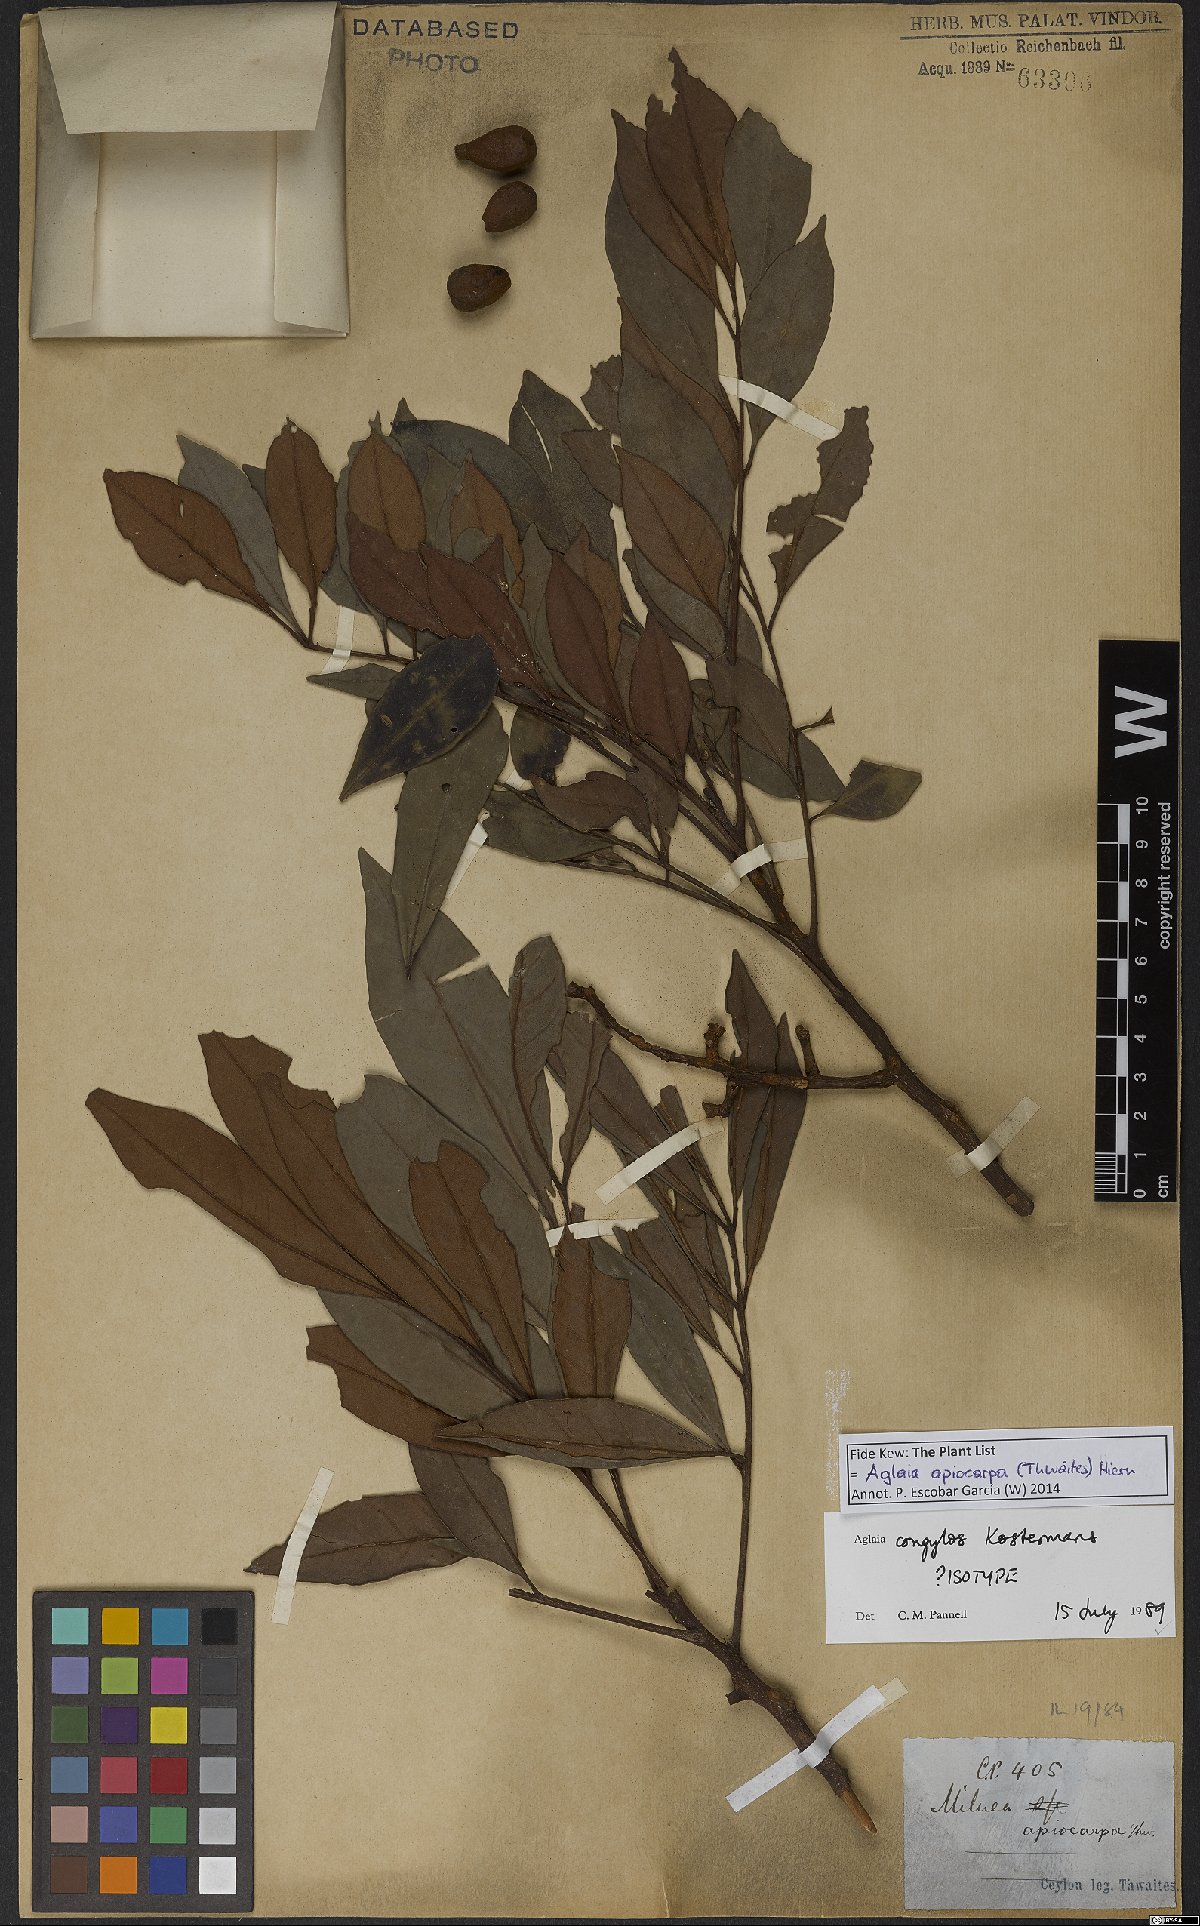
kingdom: Plantae
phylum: Tracheophyta
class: Magnoliopsida
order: Sapindales
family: Meliaceae
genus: Aglaia
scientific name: Aglaia apiocarpa
